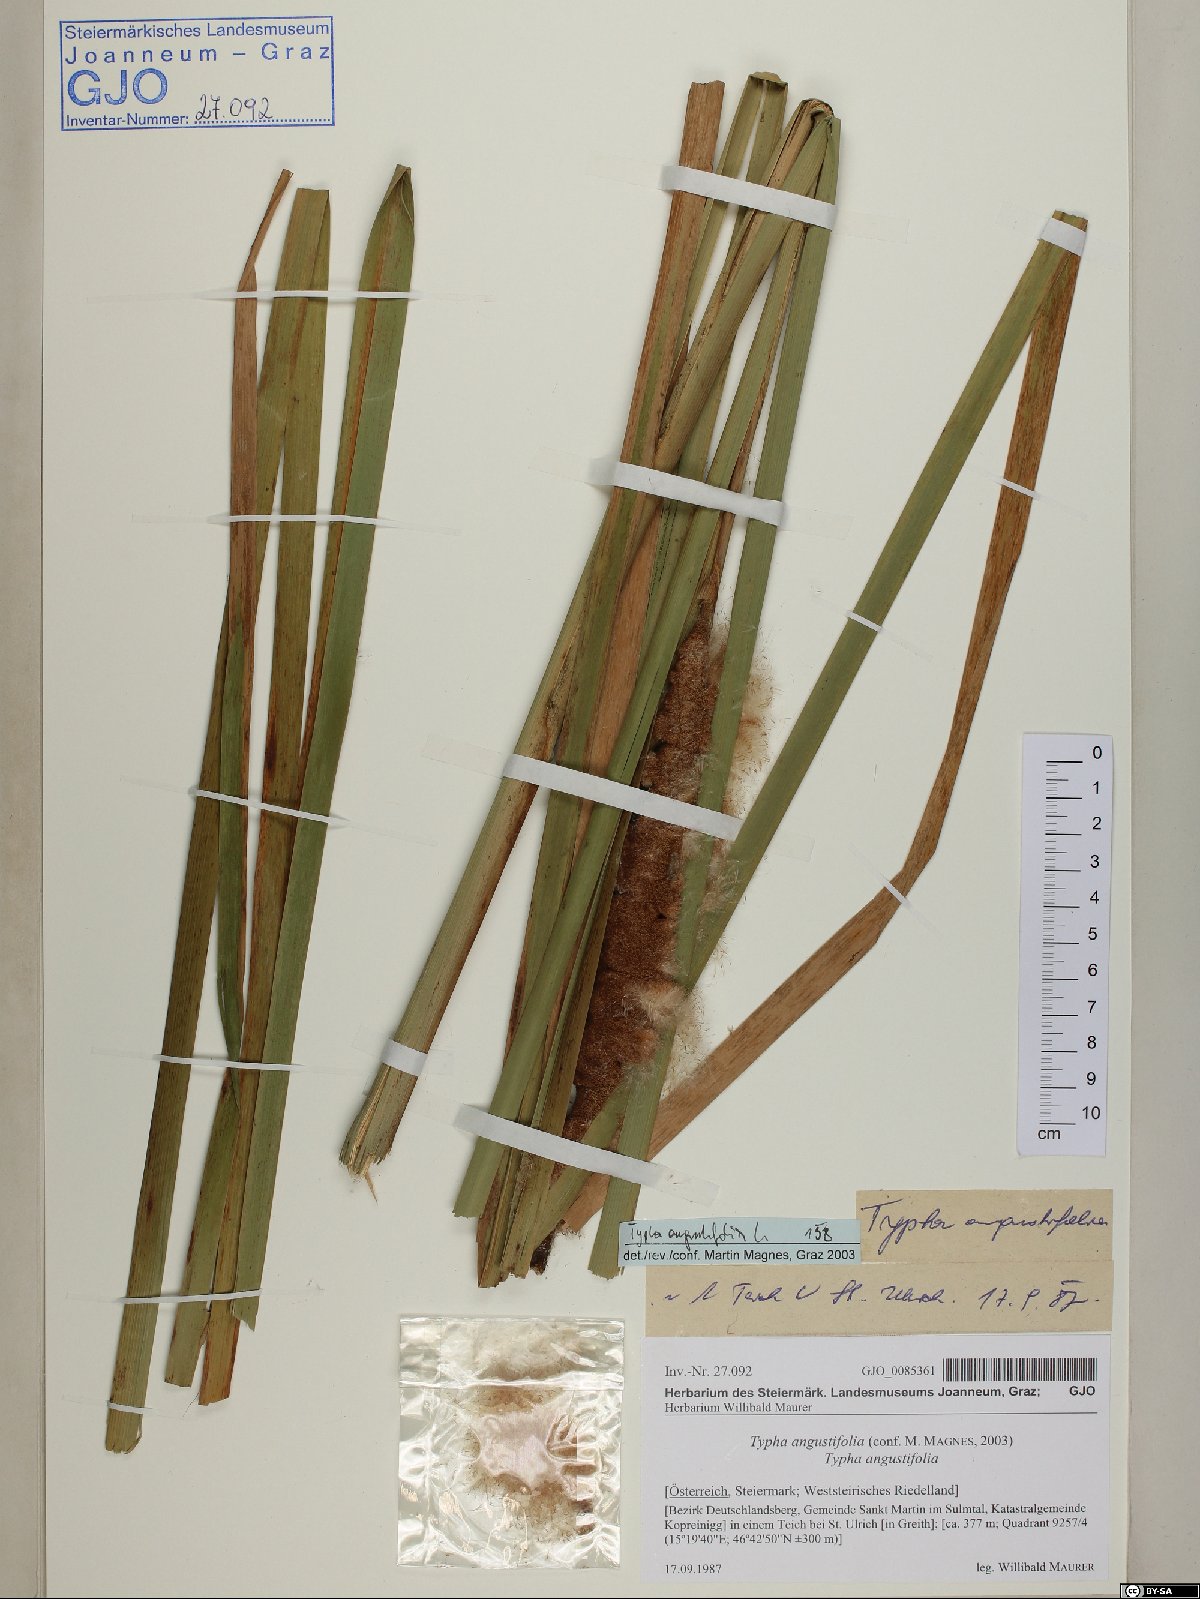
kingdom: Plantae
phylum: Tracheophyta
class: Liliopsida
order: Poales
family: Typhaceae
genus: Typha
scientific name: Typha angustifolia
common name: Lesser bulrush
